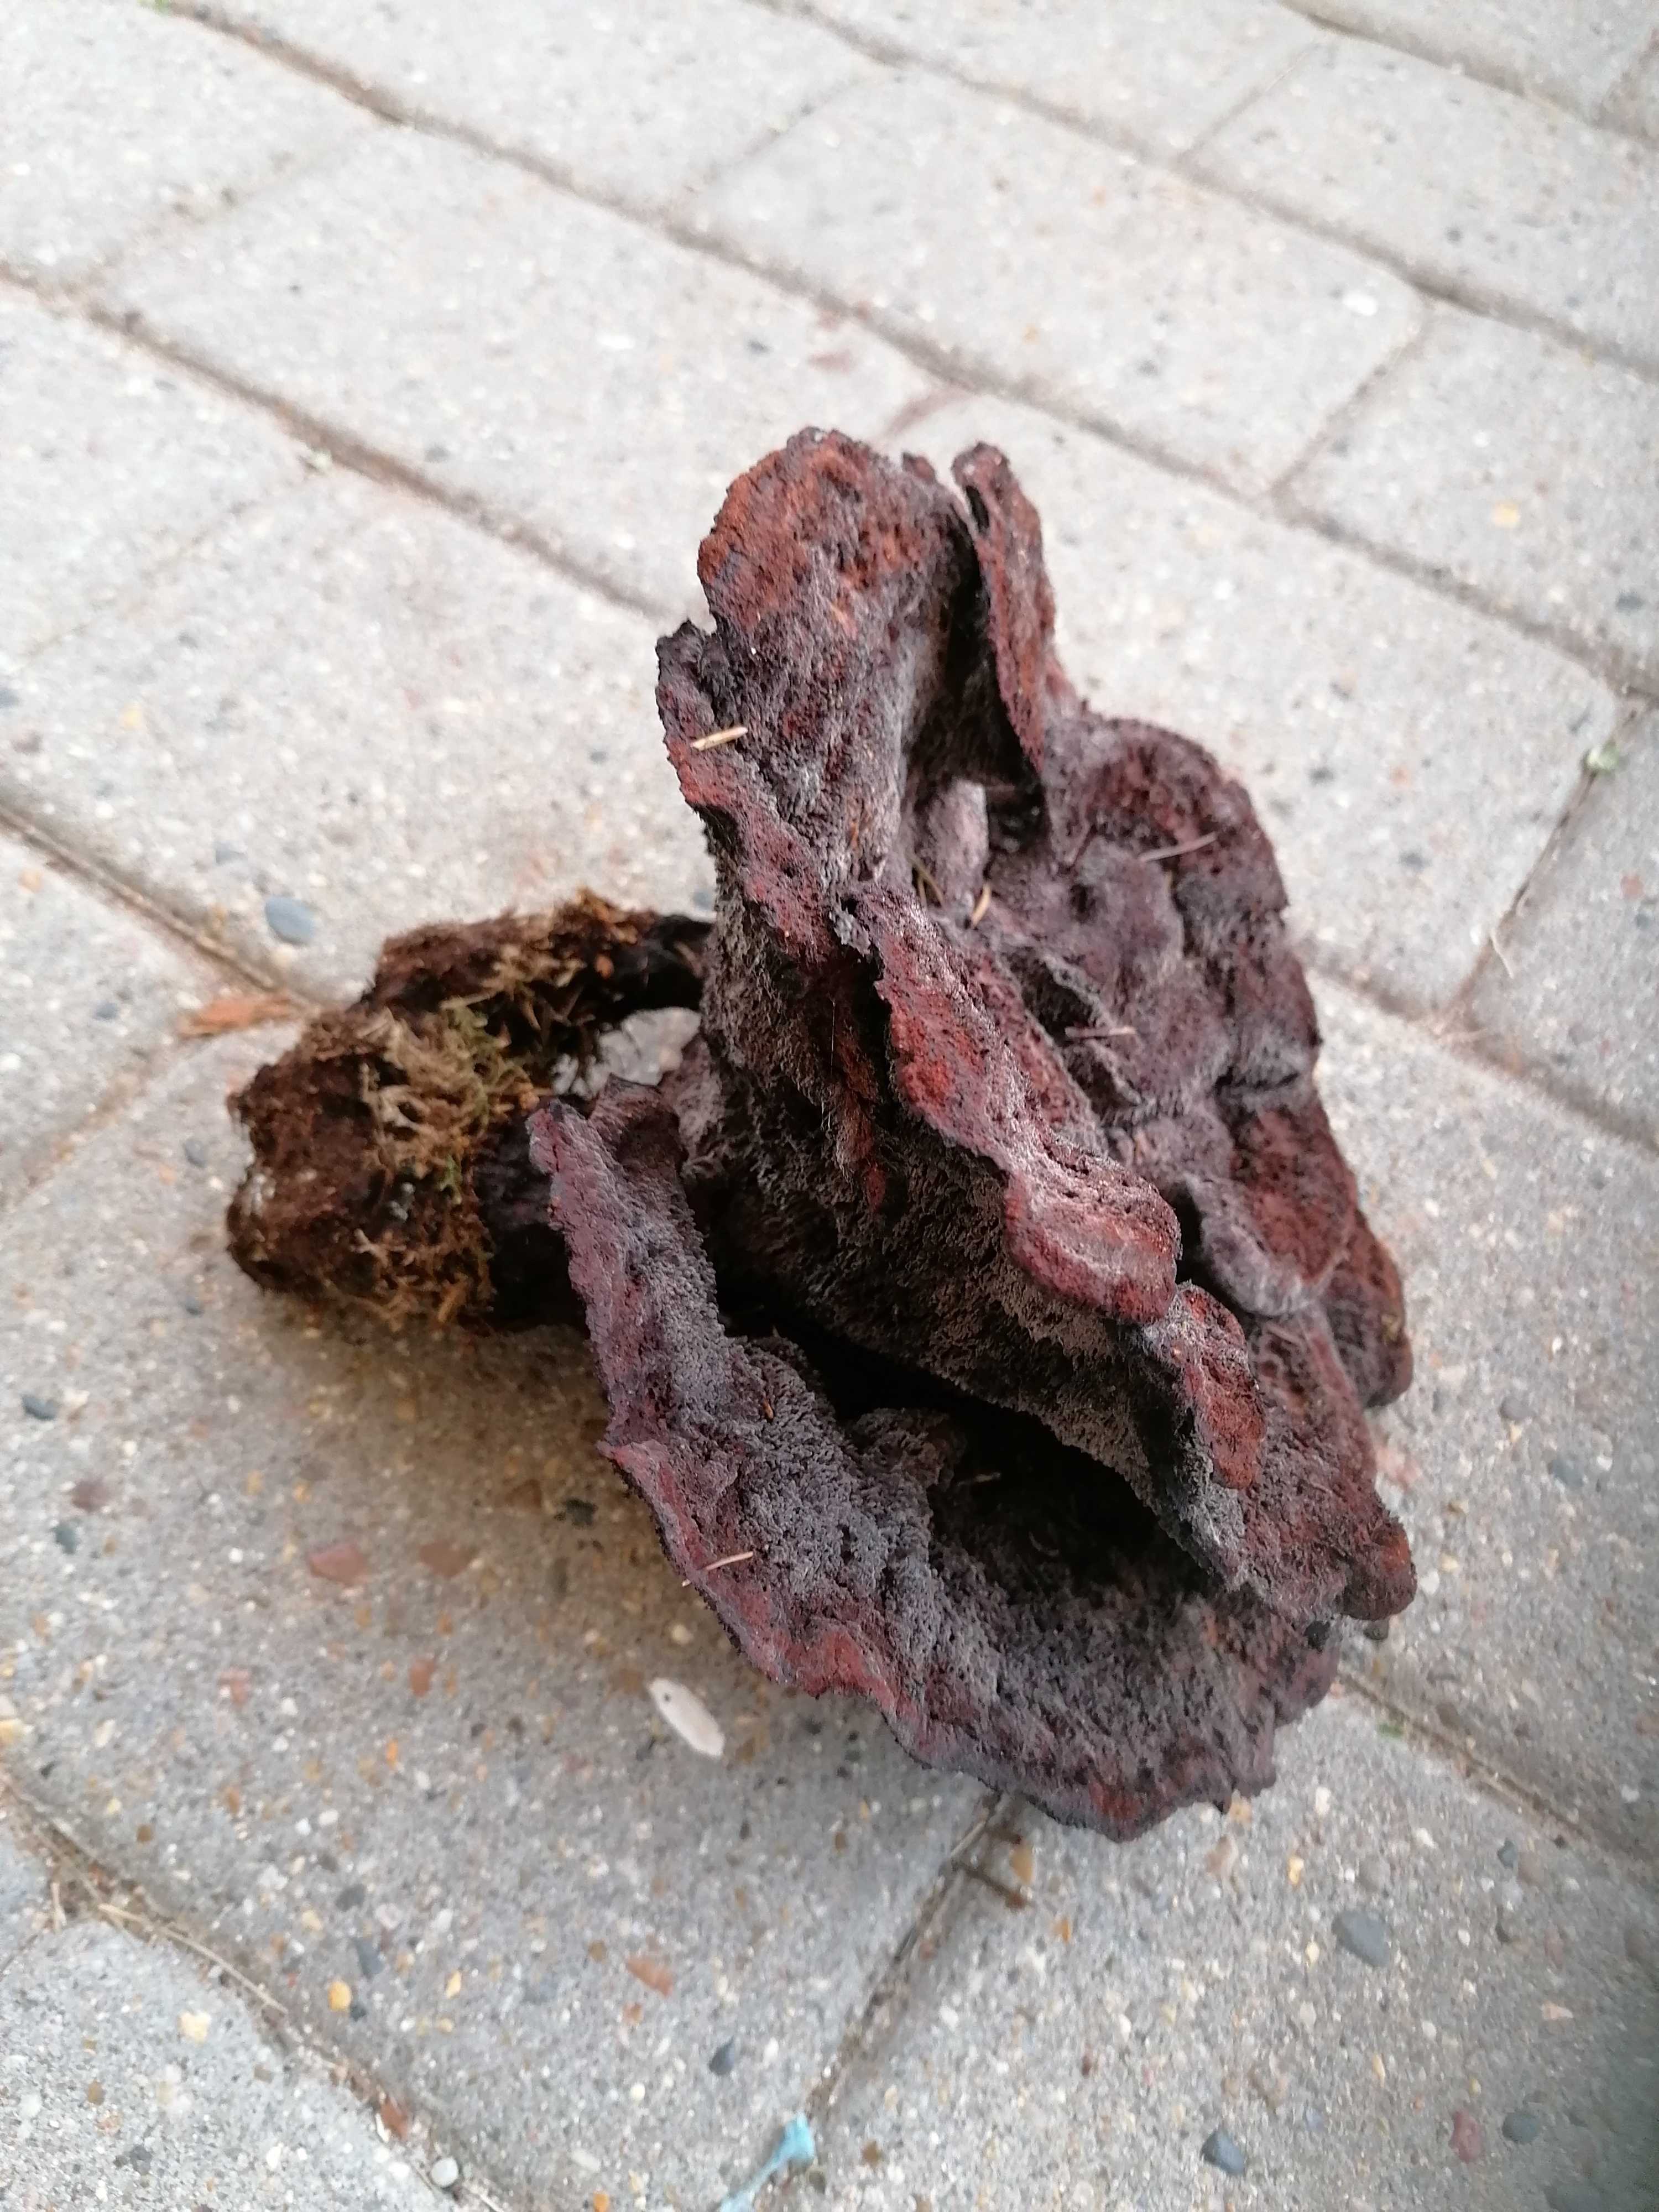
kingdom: Fungi
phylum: Basidiomycota
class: Agaricomycetes
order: Polyporales
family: Laetiporaceae
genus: Phaeolus
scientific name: Phaeolus schweinitzii
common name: brunporesvamp
